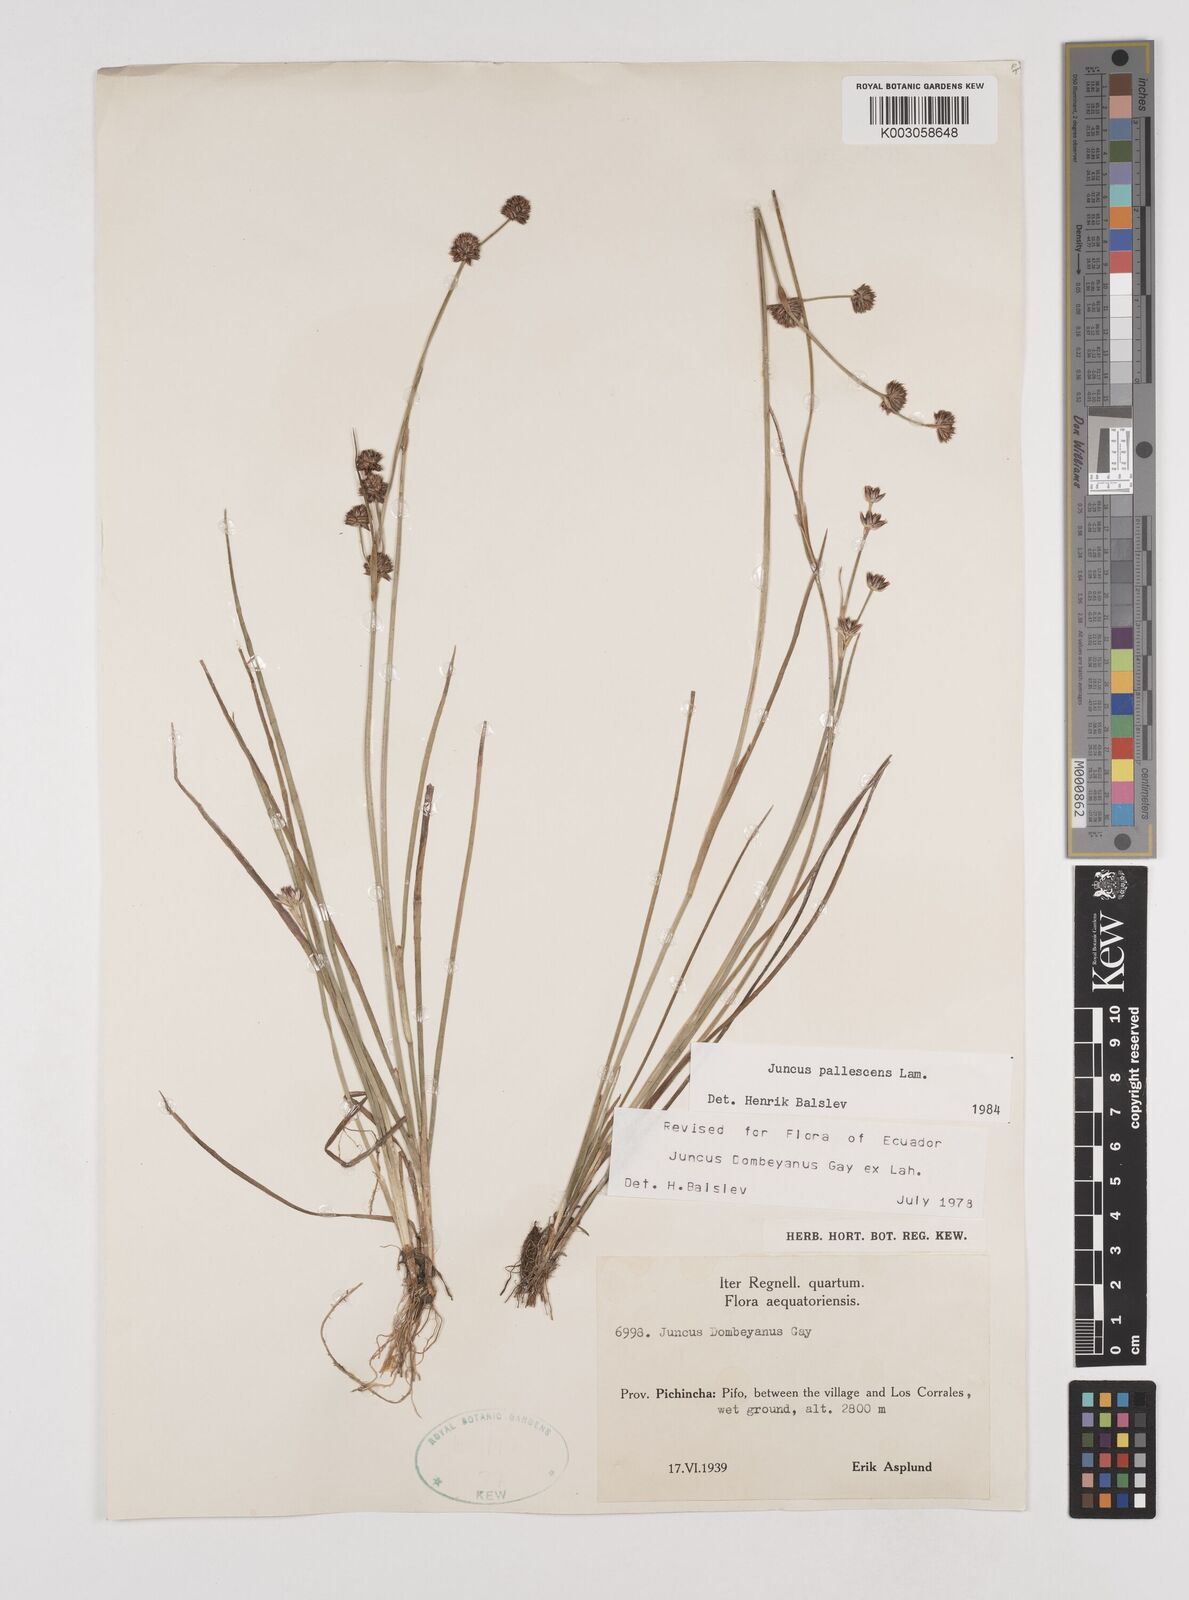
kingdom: Plantae
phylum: Tracheophyta
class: Liliopsida
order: Poales
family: Juncaceae
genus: Juncus
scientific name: Juncus pallescens
